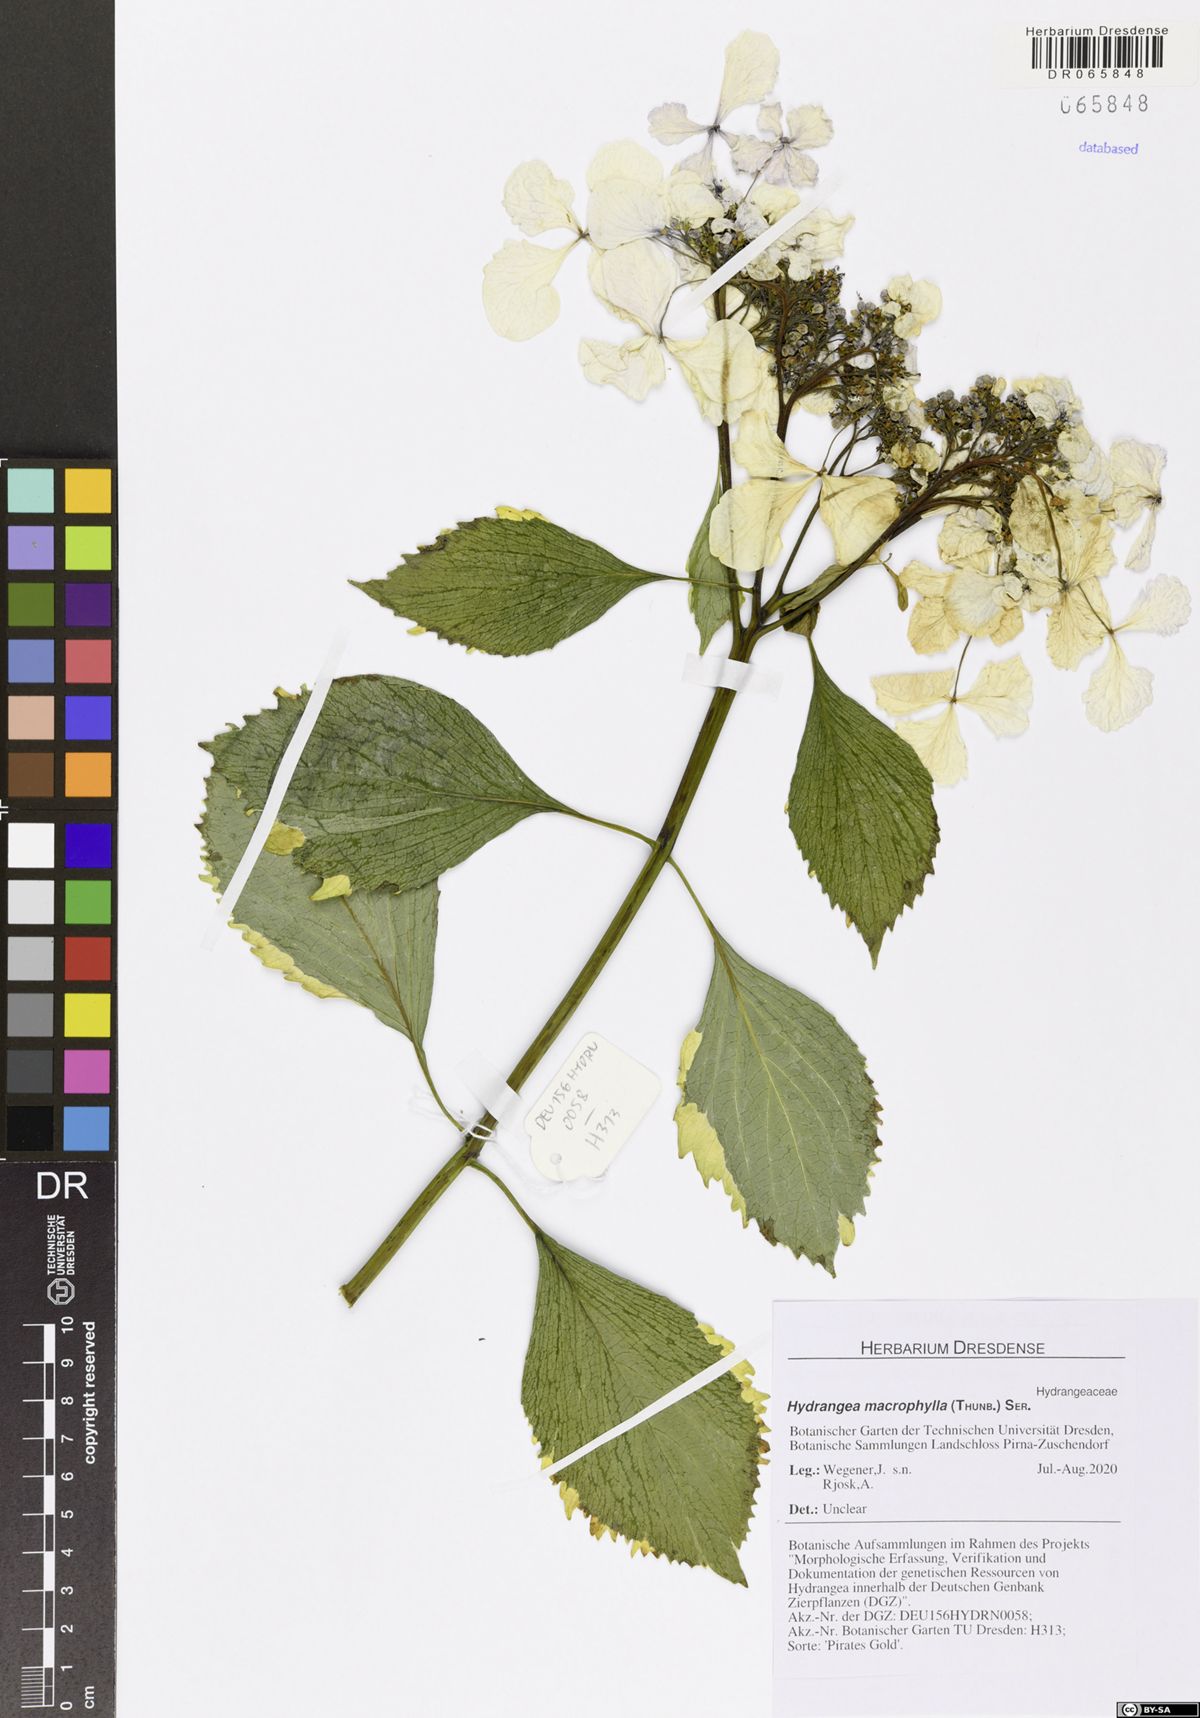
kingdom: Plantae
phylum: Tracheophyta
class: Magnoliopsida
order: Cornales
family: Hydrangeaceae
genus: Hydrangea
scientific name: Hydrangea macrophylla
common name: Hydrangea
